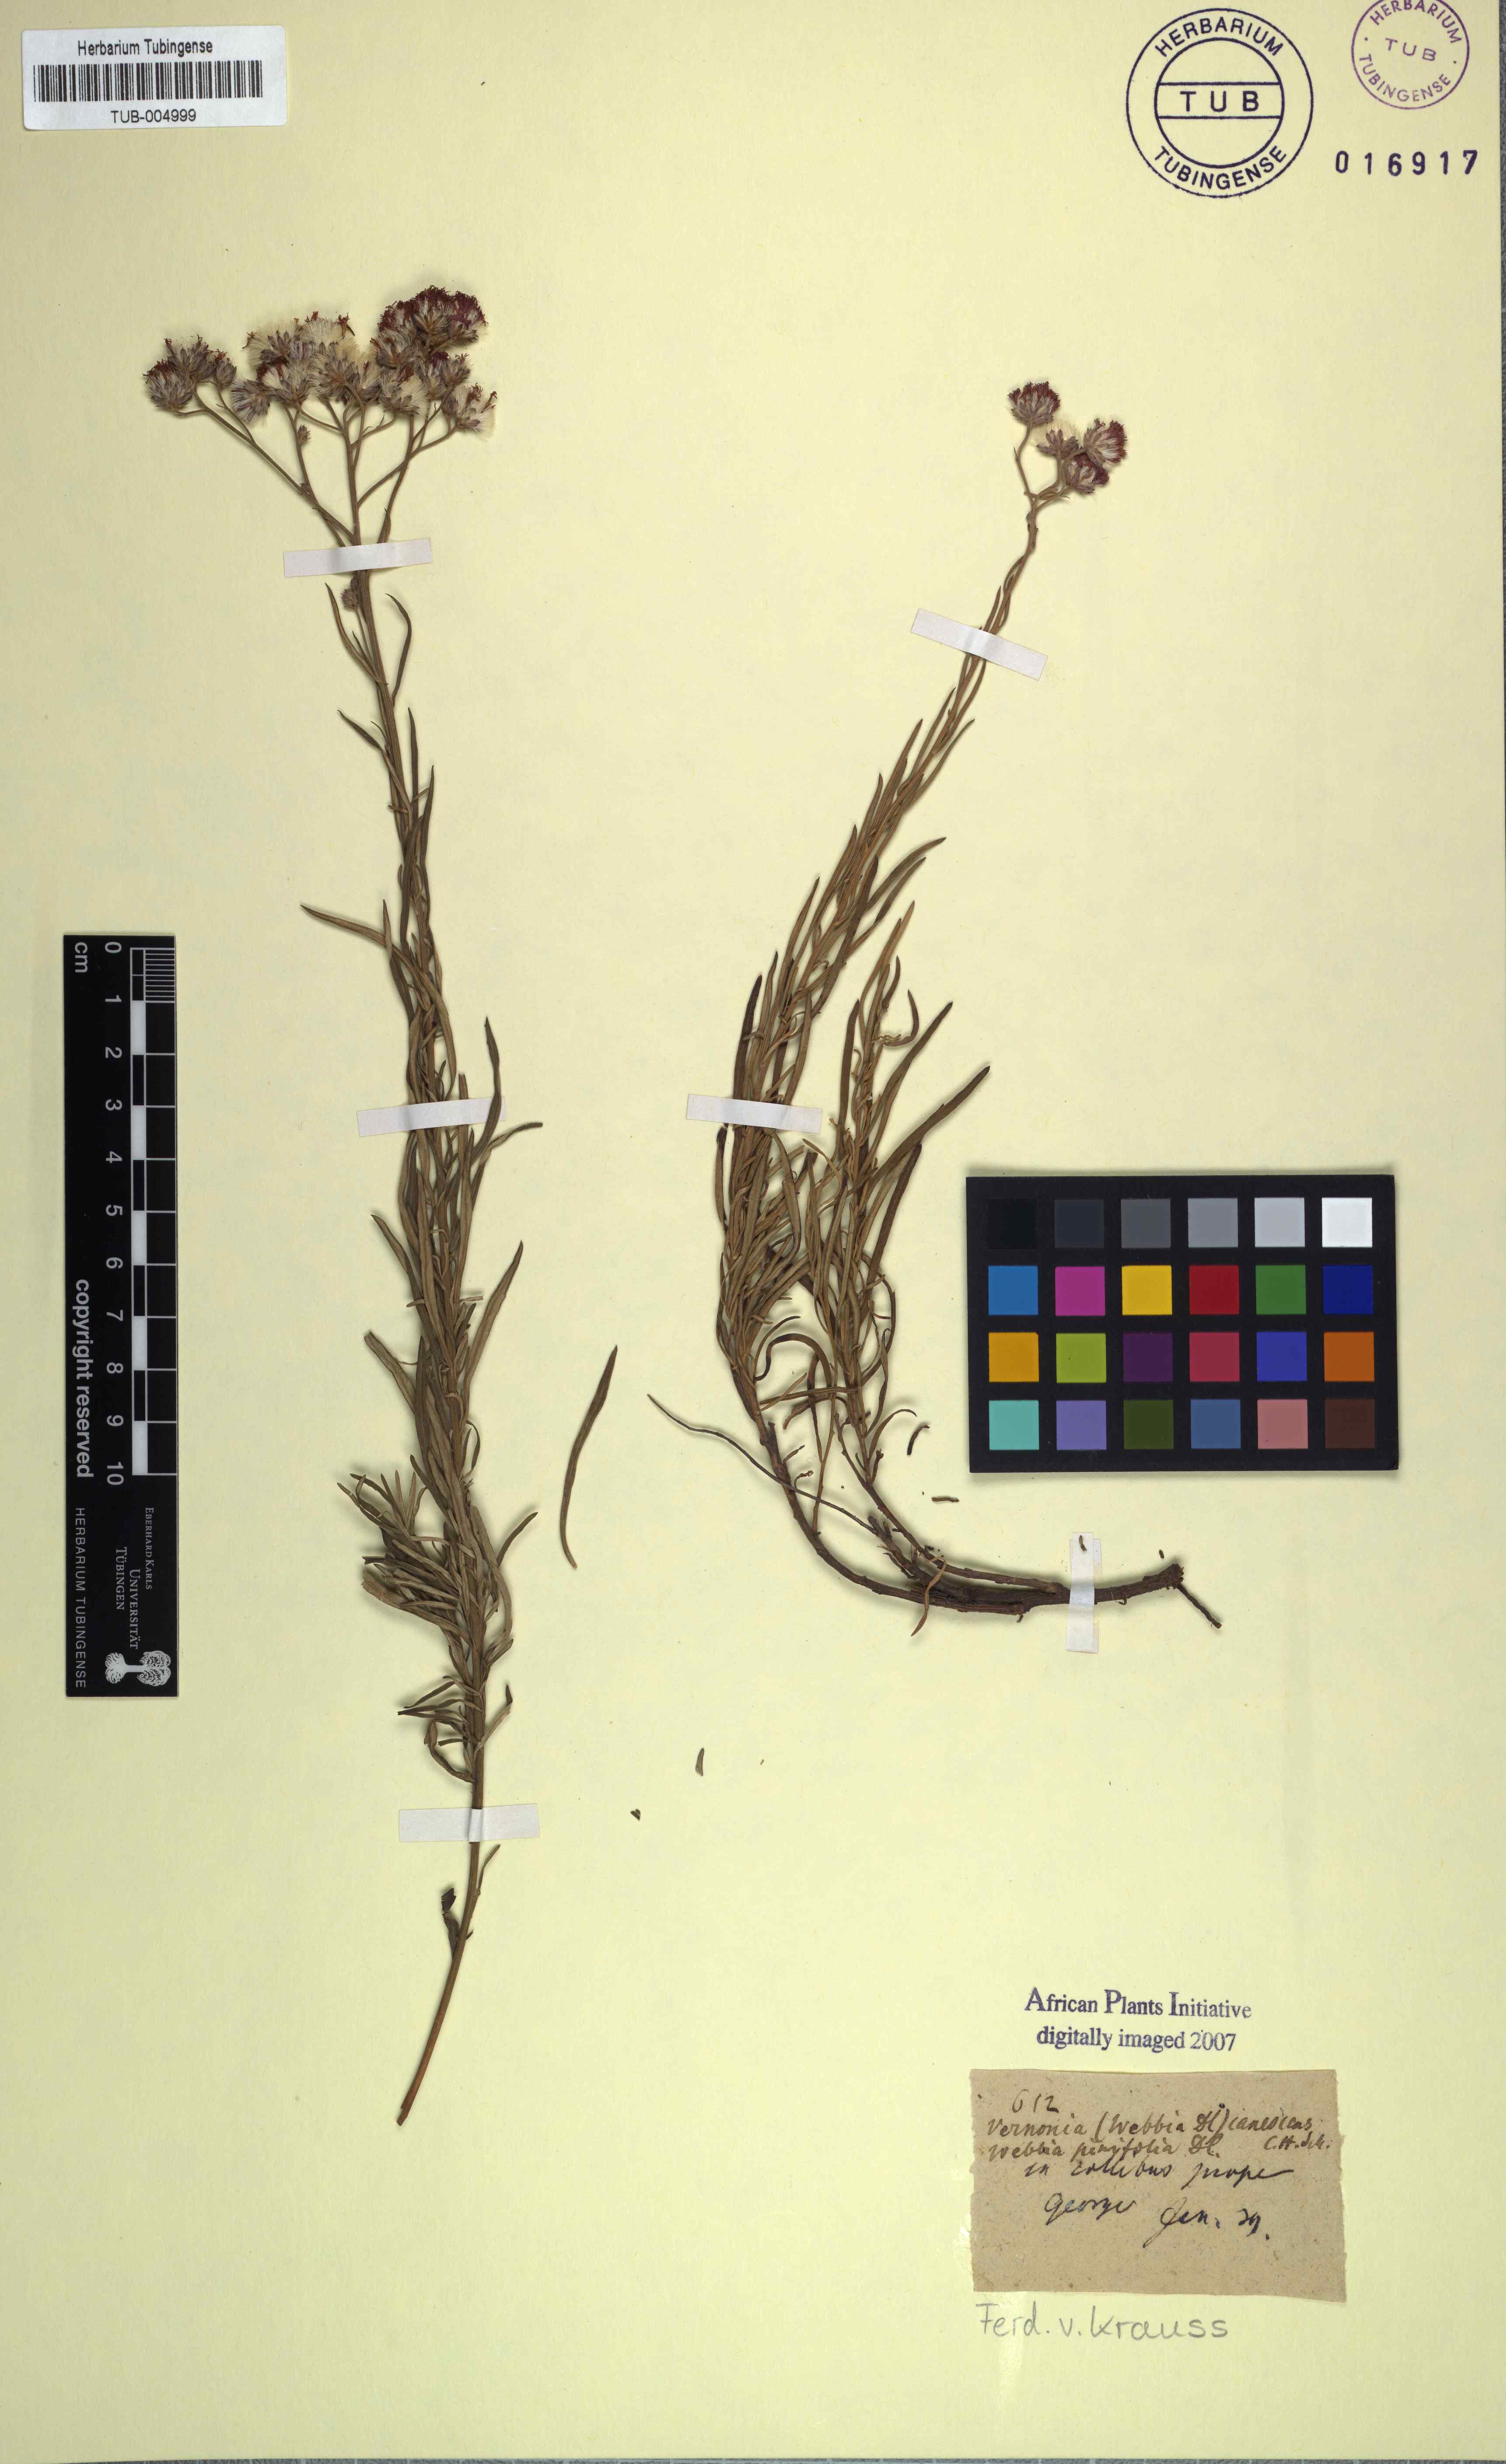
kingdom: Plantae
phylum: Tracheophyta
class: Magnoliopsida
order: Asterales
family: Asteraceae
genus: Hilliardiella
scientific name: Hilliardiella capensis
